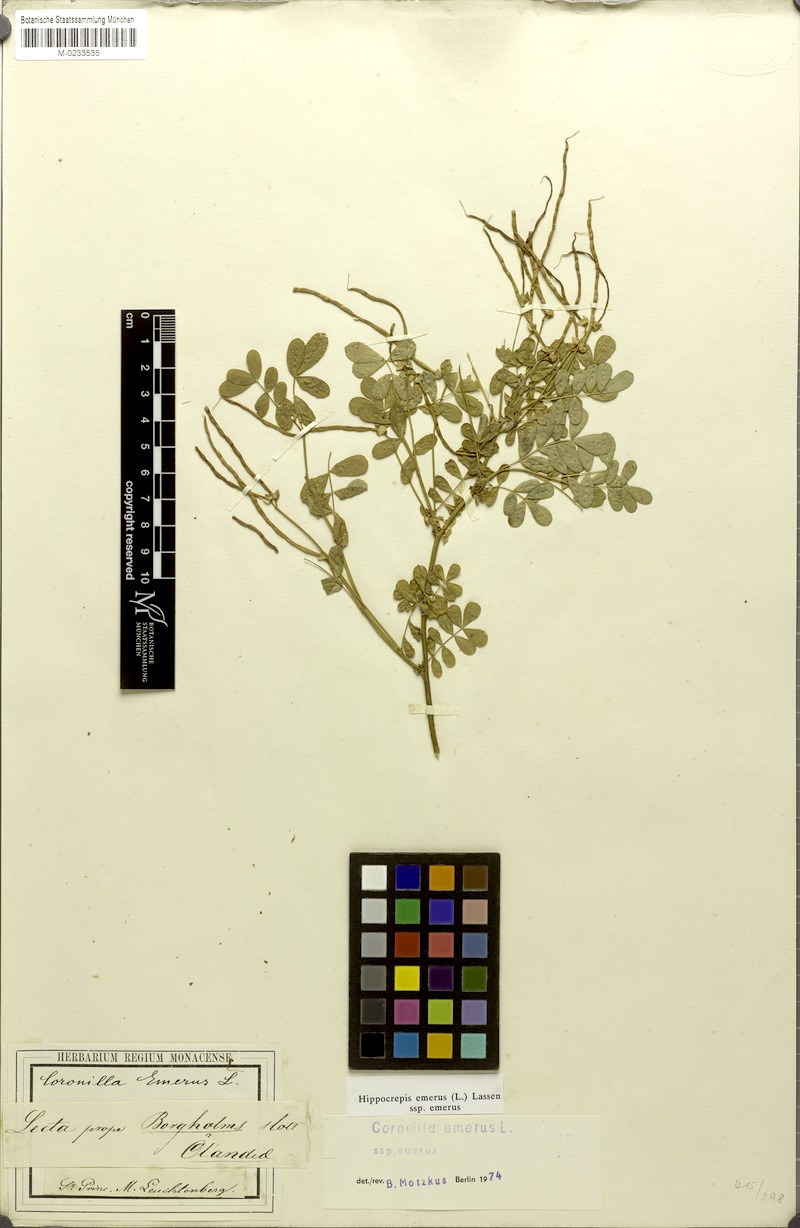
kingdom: Plantae
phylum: Tracheophyta
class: Magnoliopsida
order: Fabales
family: Fabaceae
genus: Hippocrepis
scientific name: Hippocrepis emerus
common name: Scorpion senna
